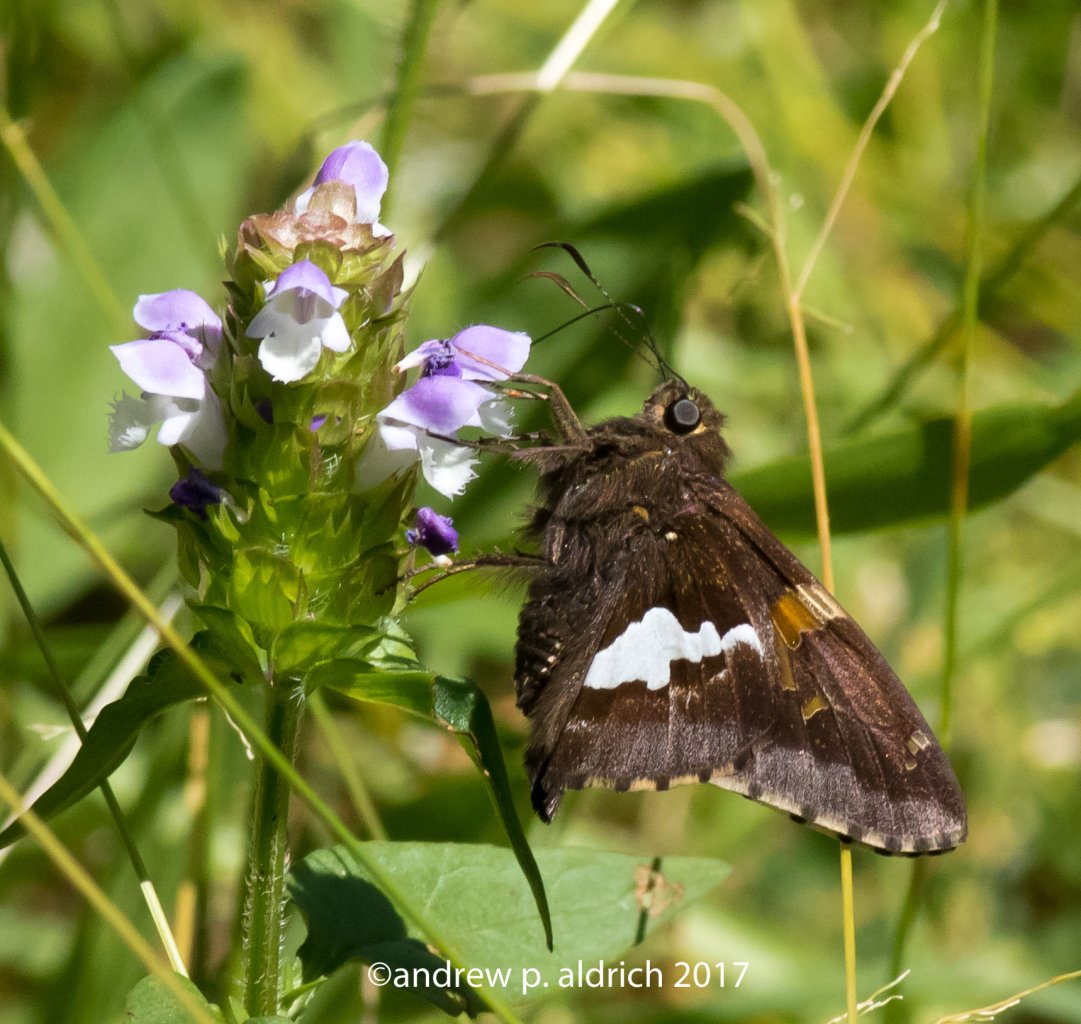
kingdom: Animalia
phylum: Arthropoda
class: Insecta
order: Lepidoptera
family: Hesperiidae
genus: Epargyreus
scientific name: Epargyreus clarus
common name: Silver-spotted Skipper
